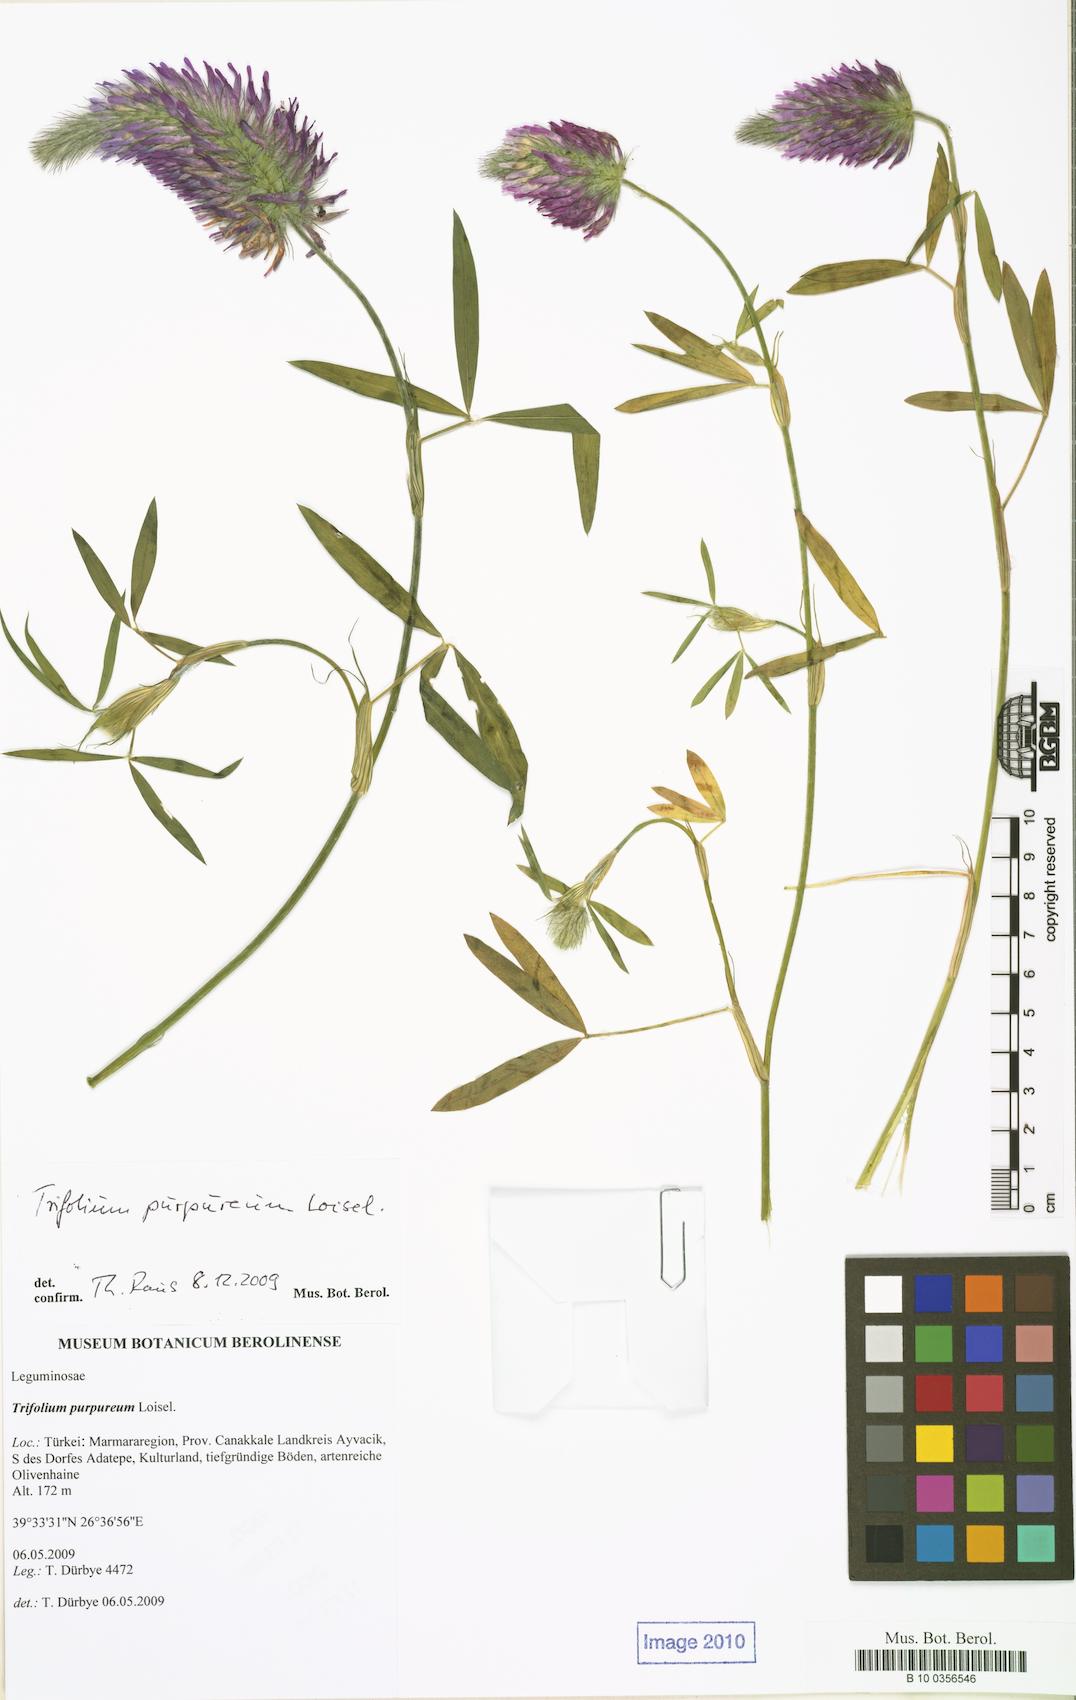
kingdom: Plantae
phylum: Tracheophyta
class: Magnoliopsida
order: Fabales
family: Fabaceae
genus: Trifolium
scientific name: Trifolium purpureum
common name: Purple clover
